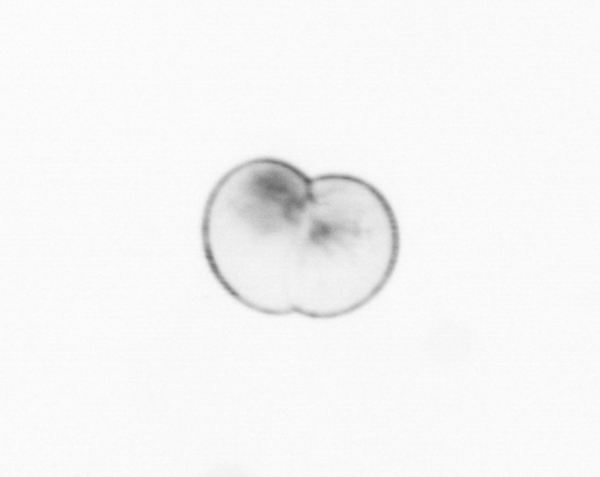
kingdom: Chromista
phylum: Myzozoa
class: Dinophyceae
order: Noctilucales
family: Noctilucaceae
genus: Noctiluca
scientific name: Noctiluca scintillans
